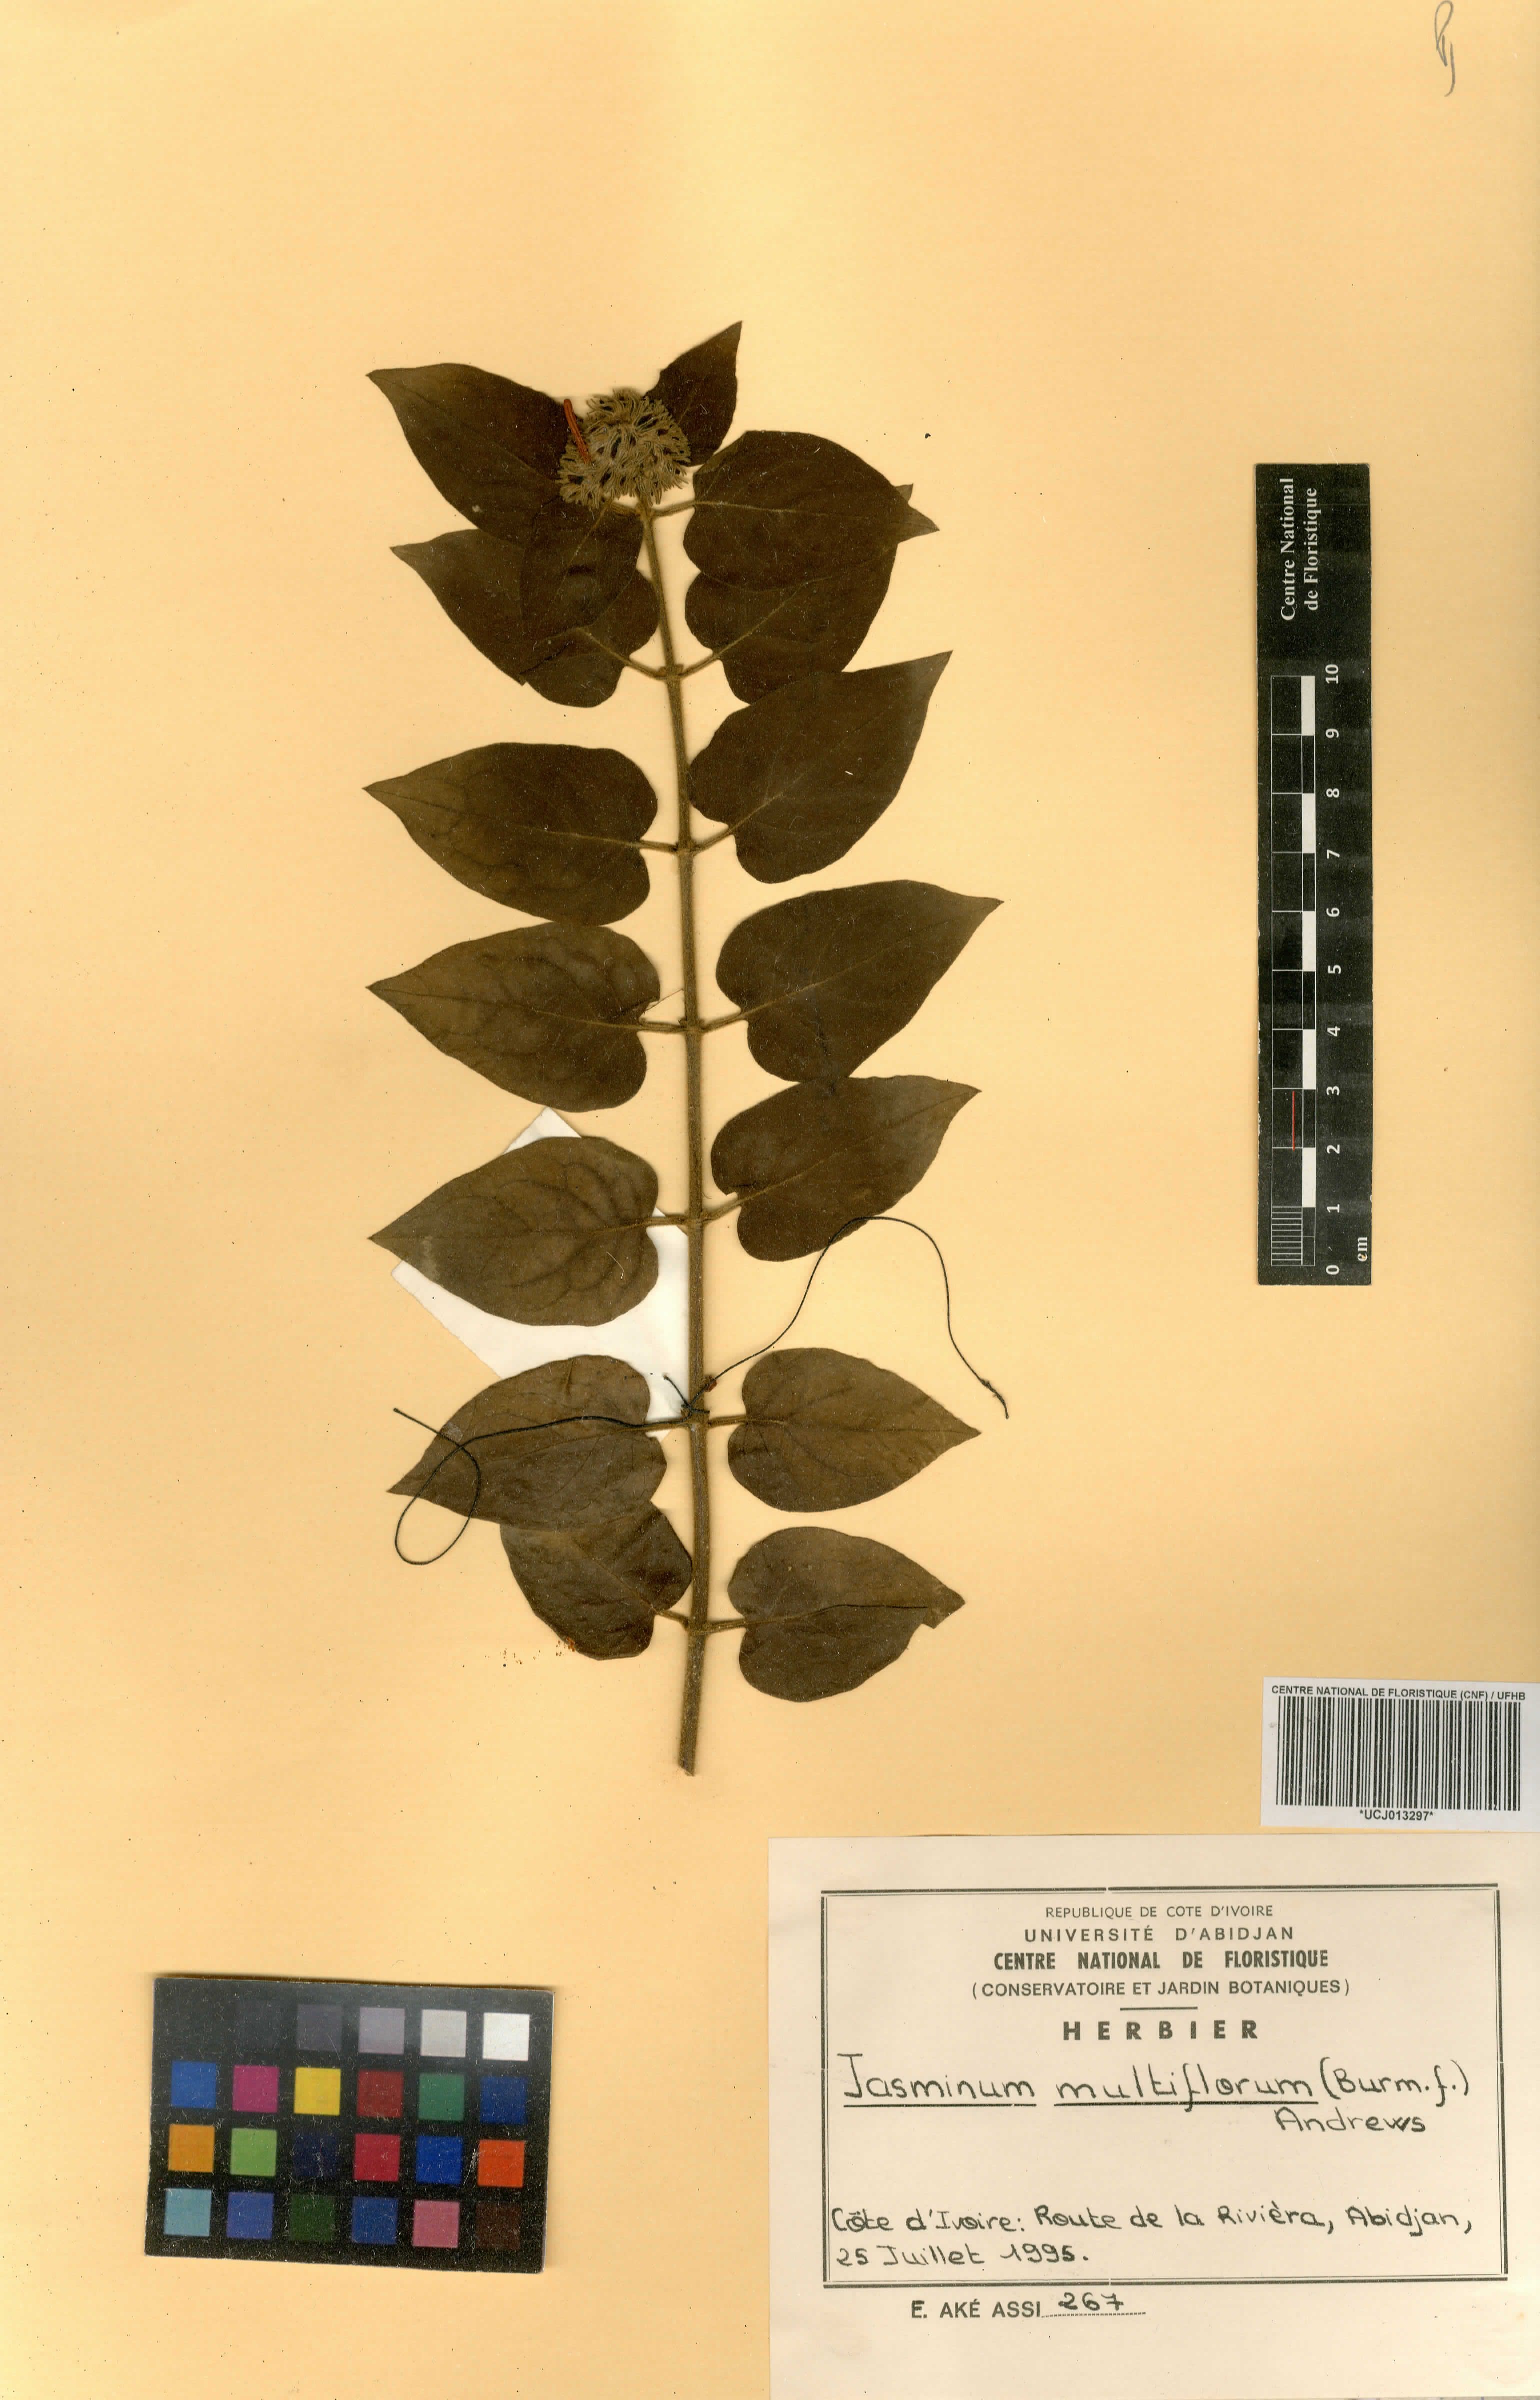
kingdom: Plantae
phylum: Tracheophyta
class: Magnoliopsida
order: Lamiales
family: Oleaceae
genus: Jasminum
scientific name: Jasminum multiflorum
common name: Star jasmine
